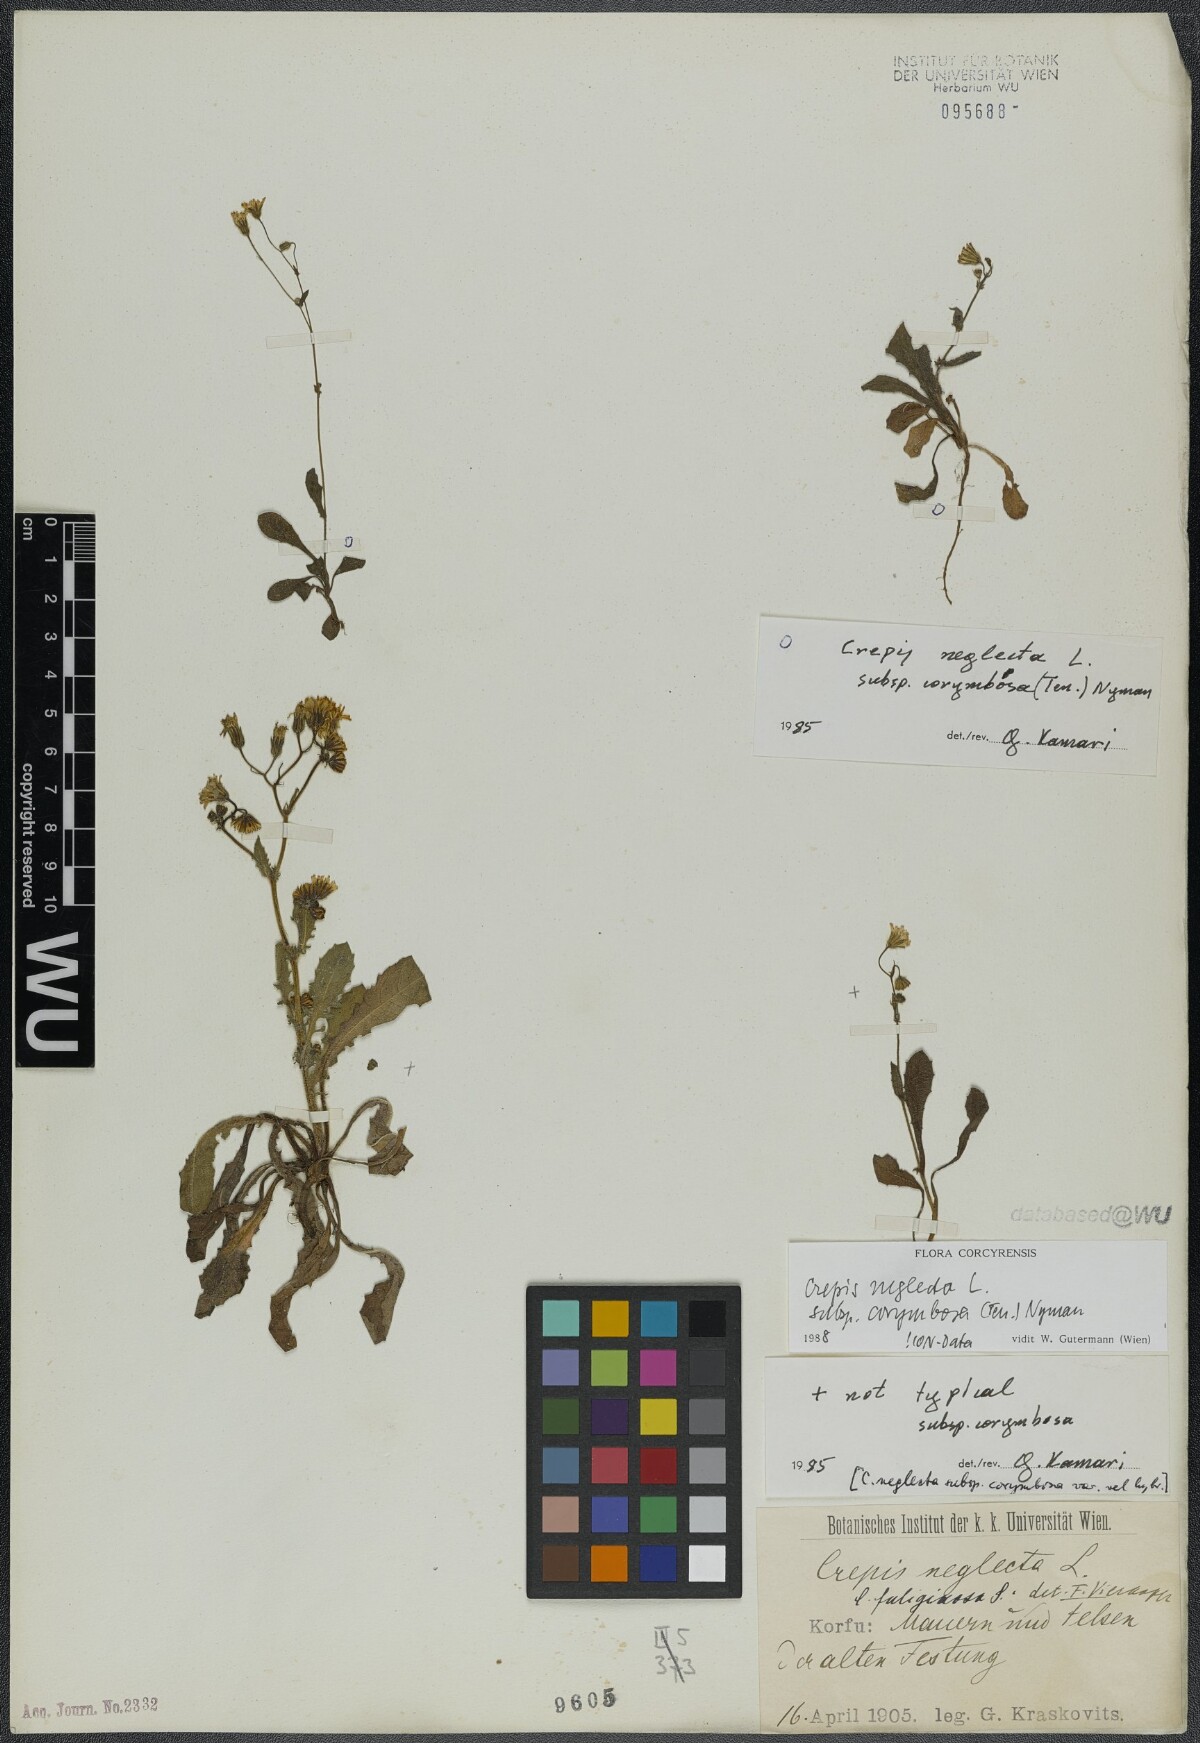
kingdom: Plantae
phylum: Tracheophyta
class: Magnoliopsida
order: Asterales
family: Asteraceae
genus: Crepis
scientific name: Crepis neglecta
